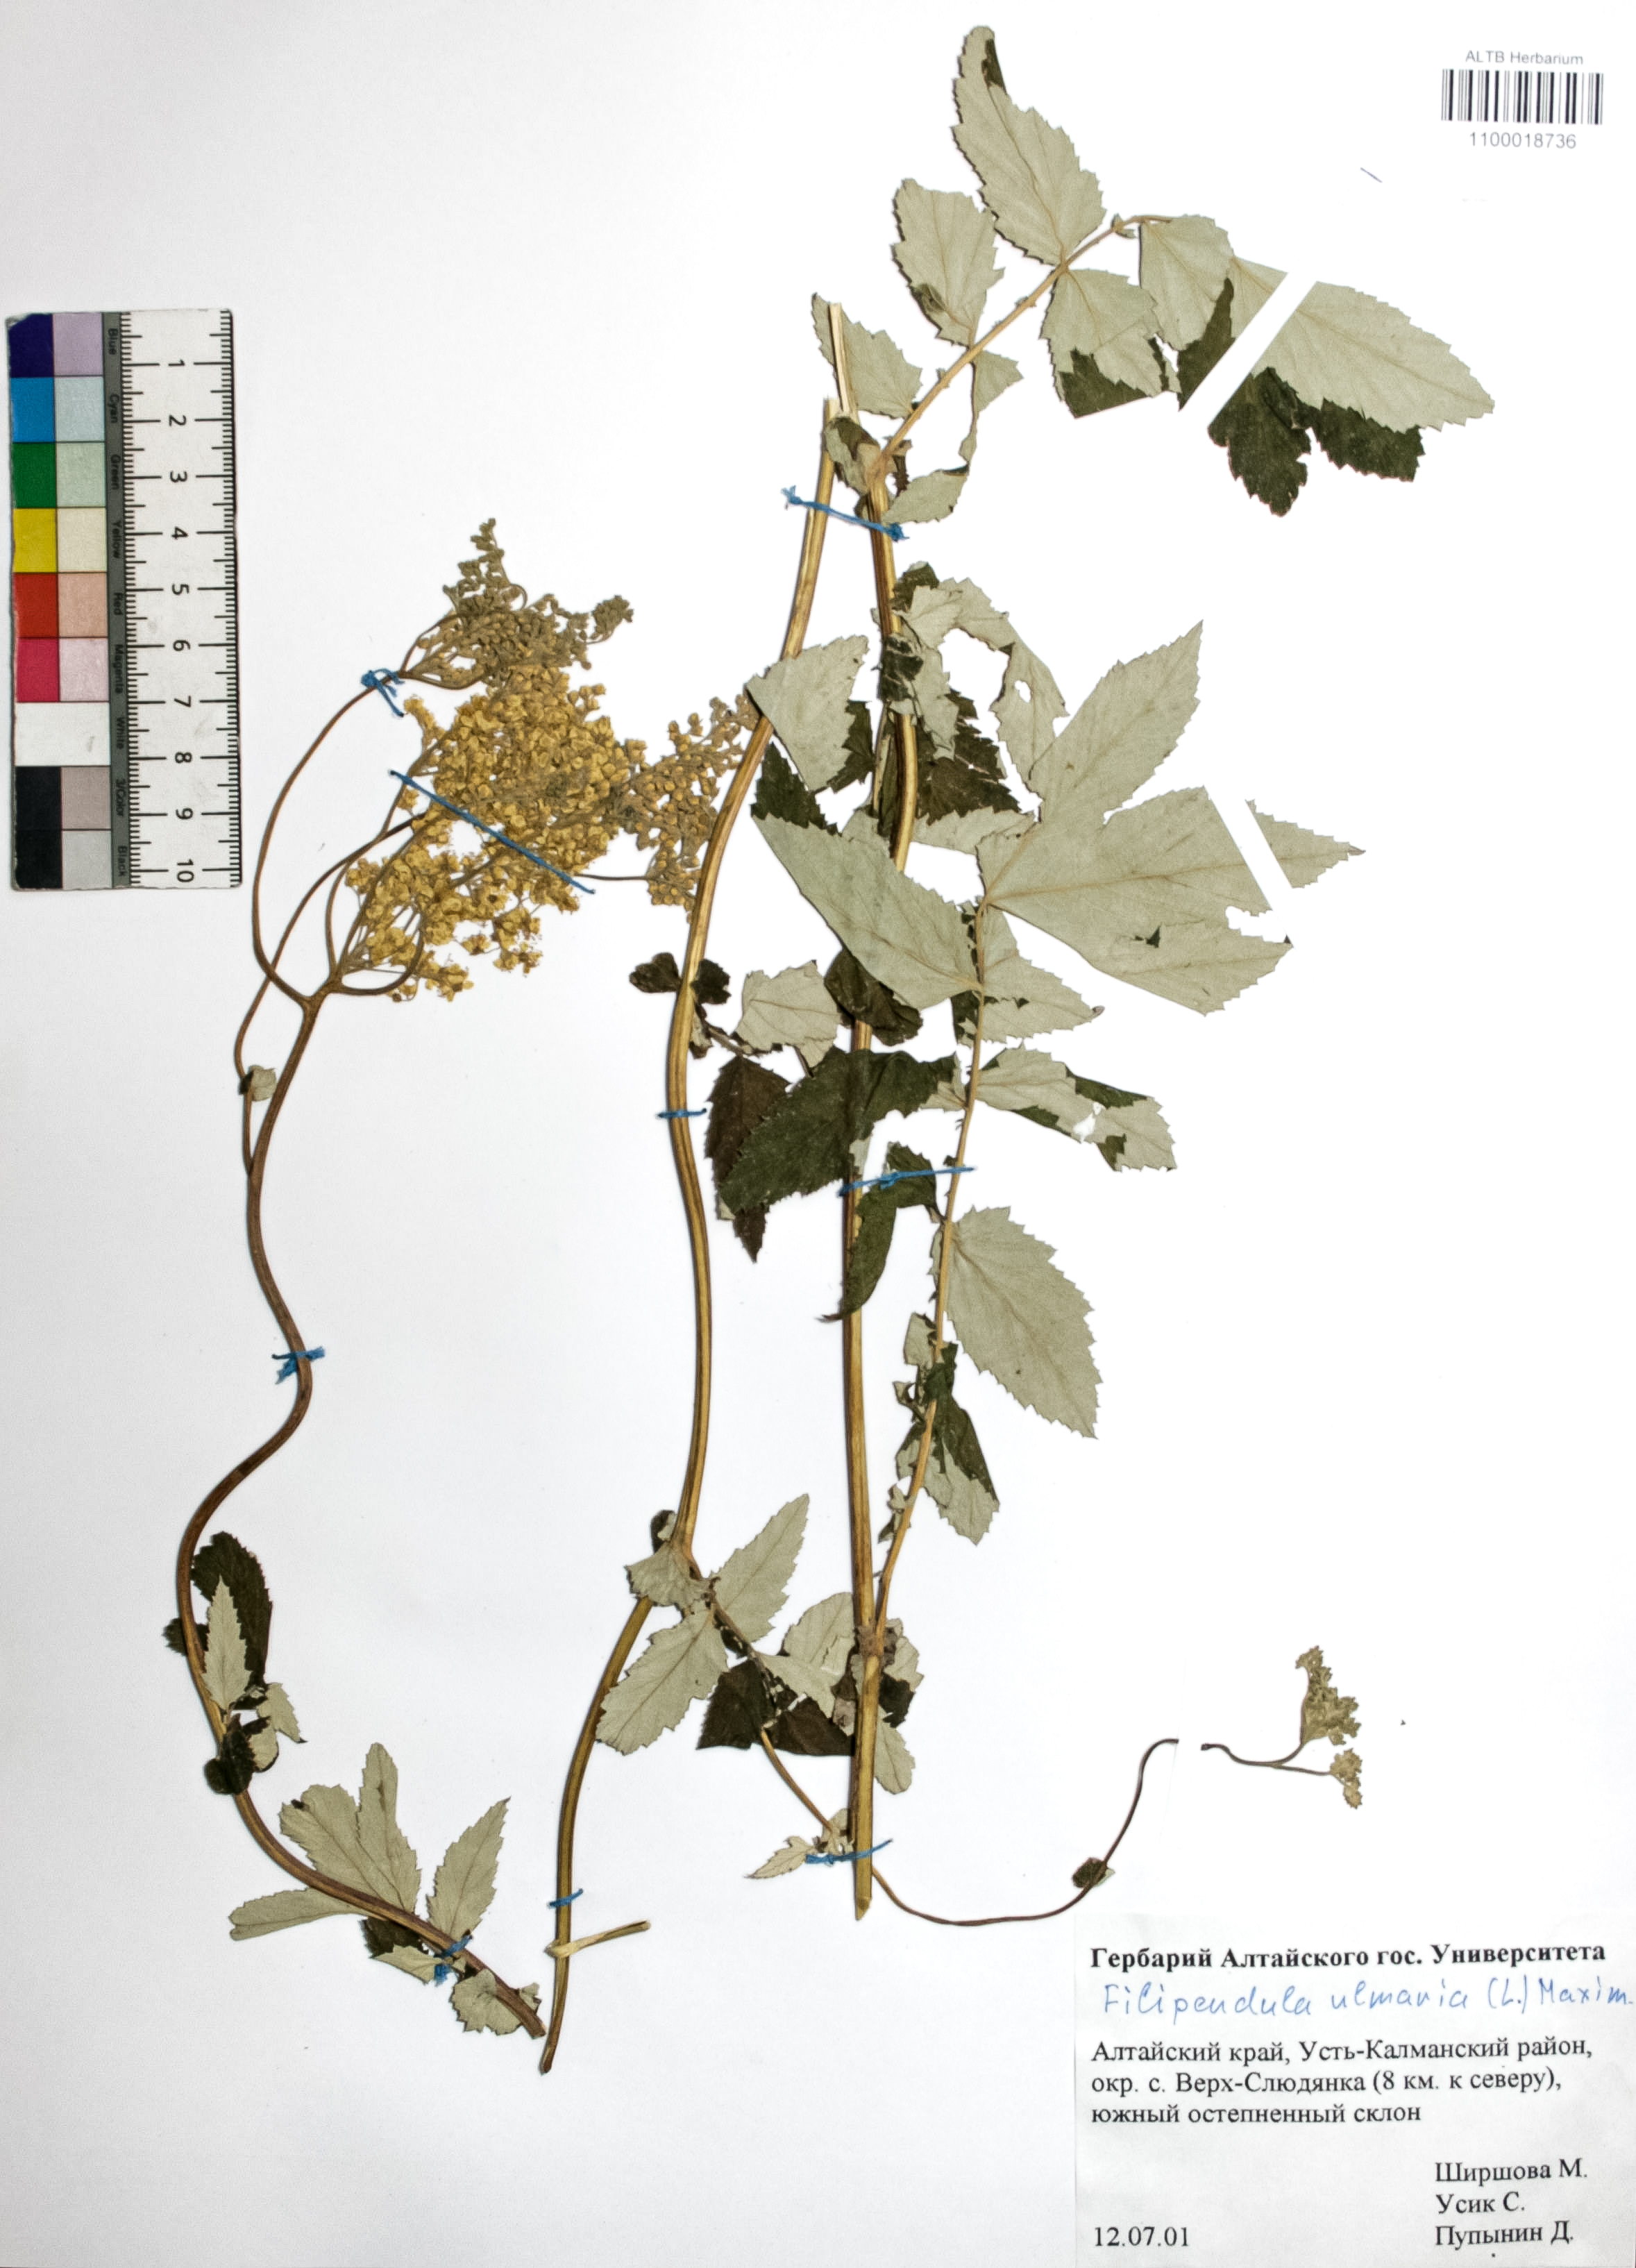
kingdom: Plantae
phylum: Tracheophyta
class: Magnoliopsida
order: Rosales
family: Rosaceae
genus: Filipendula
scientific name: Filipendula ulmaria
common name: Meadowsweet
